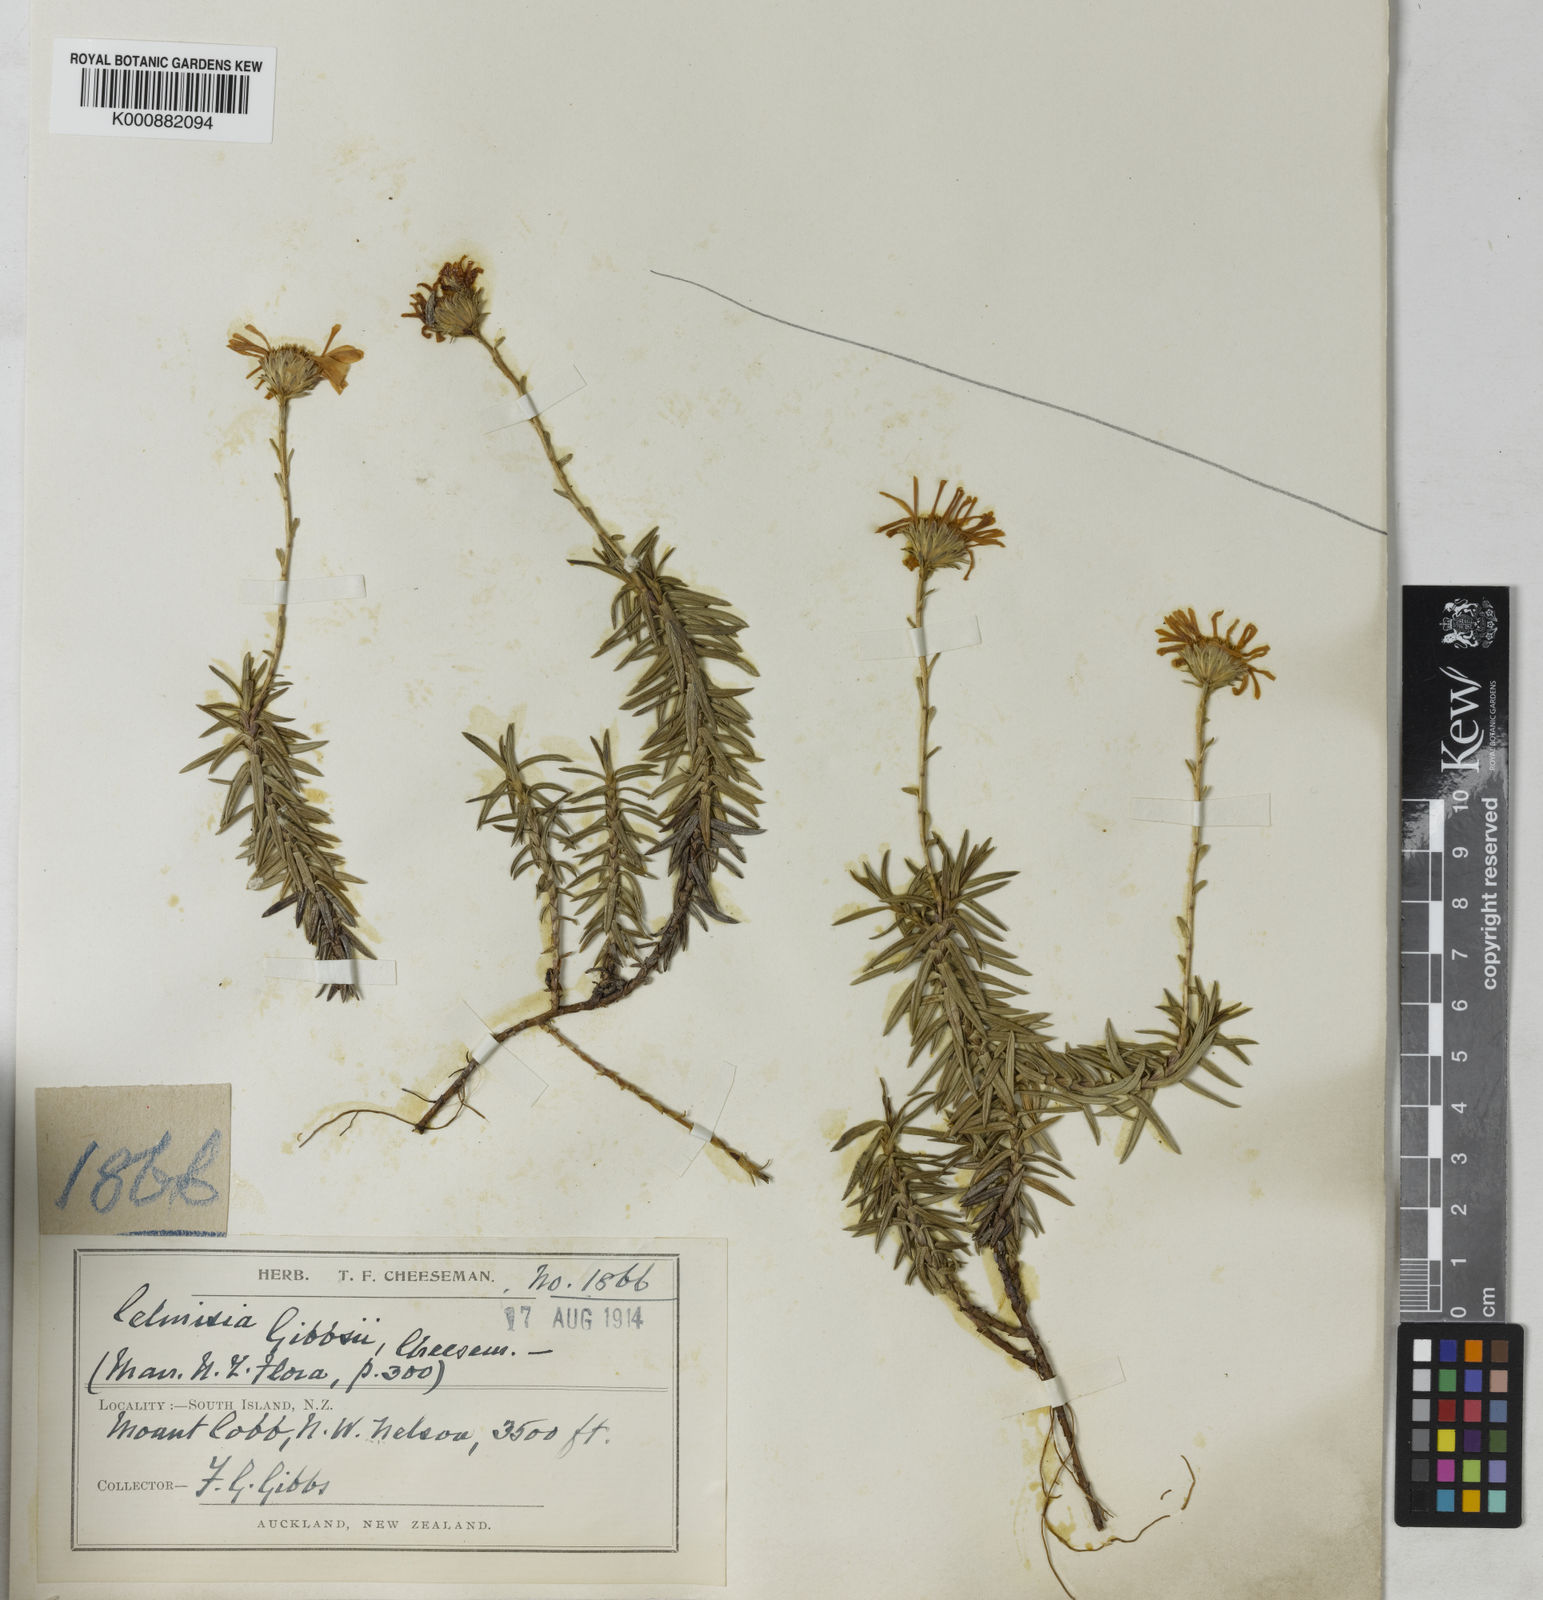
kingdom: Plantae
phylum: Tracheophyta
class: Magnoliopsida
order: Asterales
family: Asteraceae
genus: Celmisia
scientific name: Celmisia gibbsii
